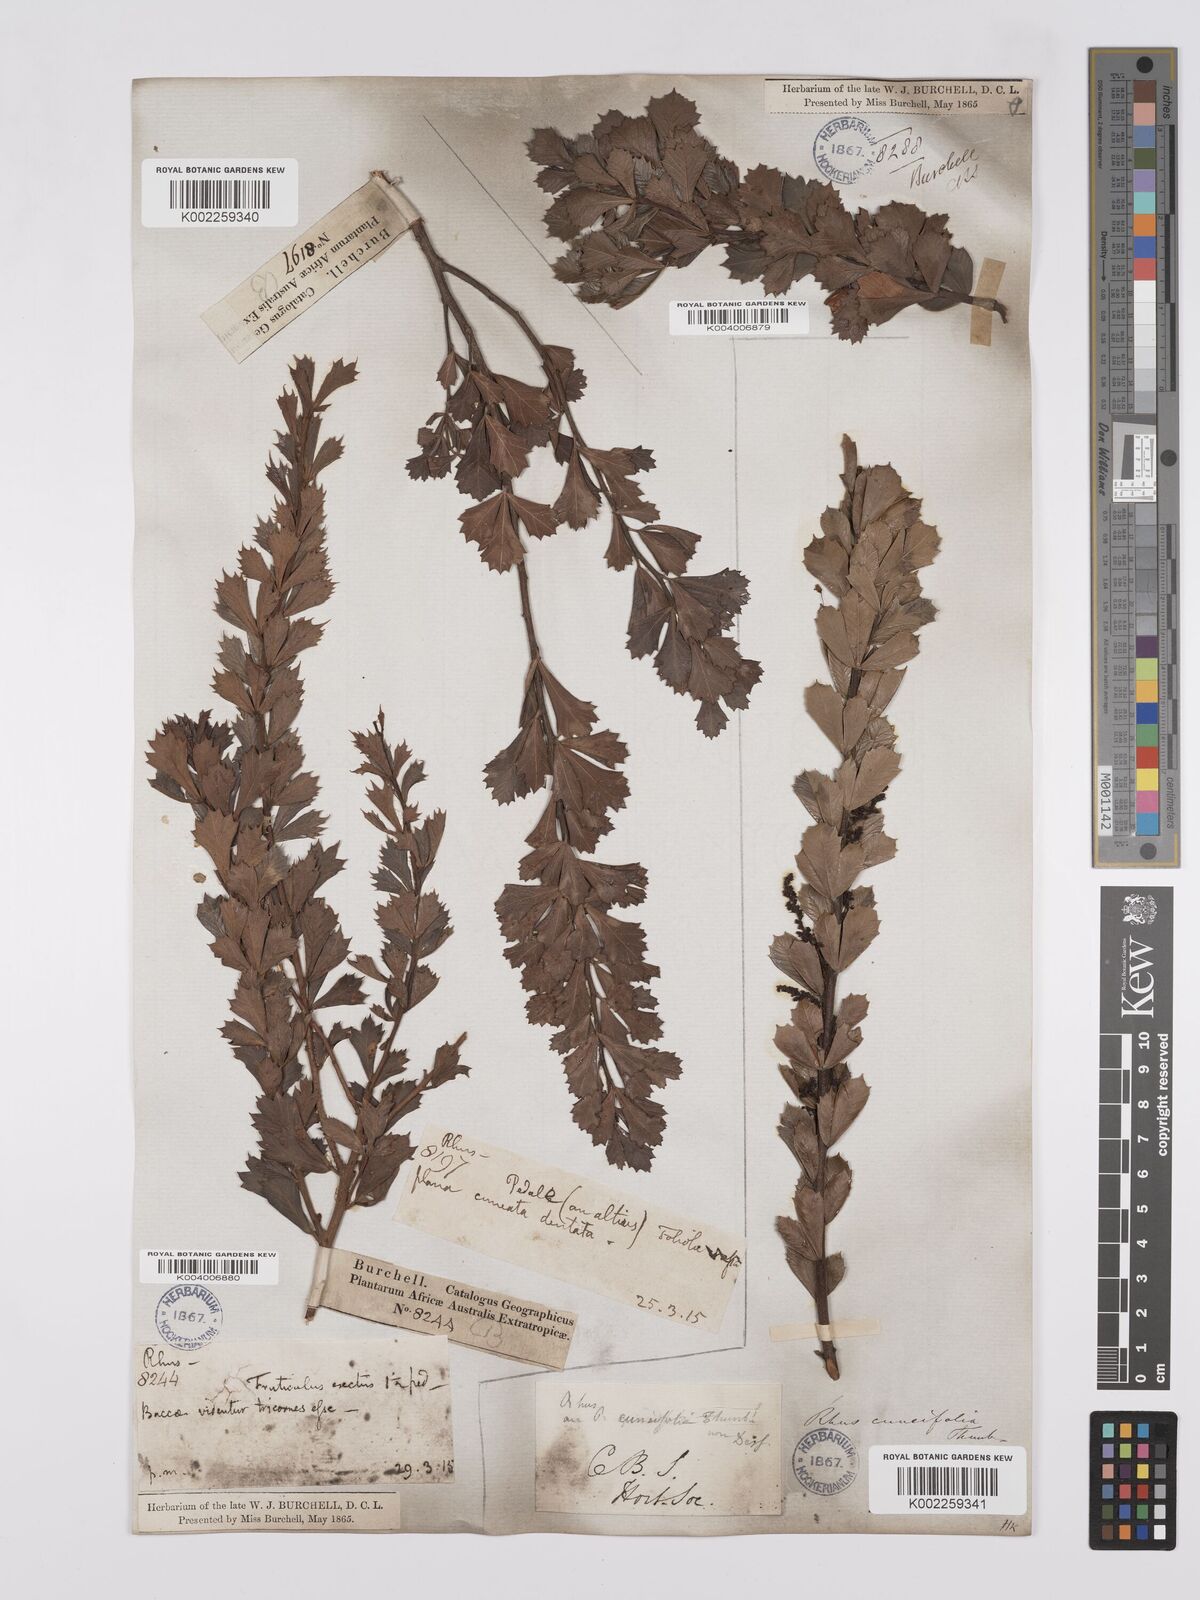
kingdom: Plantae
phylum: Tracheophyta
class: Magnoliopsida
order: Sapindales
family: Anacardiaceae
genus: Searsia
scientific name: Searsia cuneifolia
